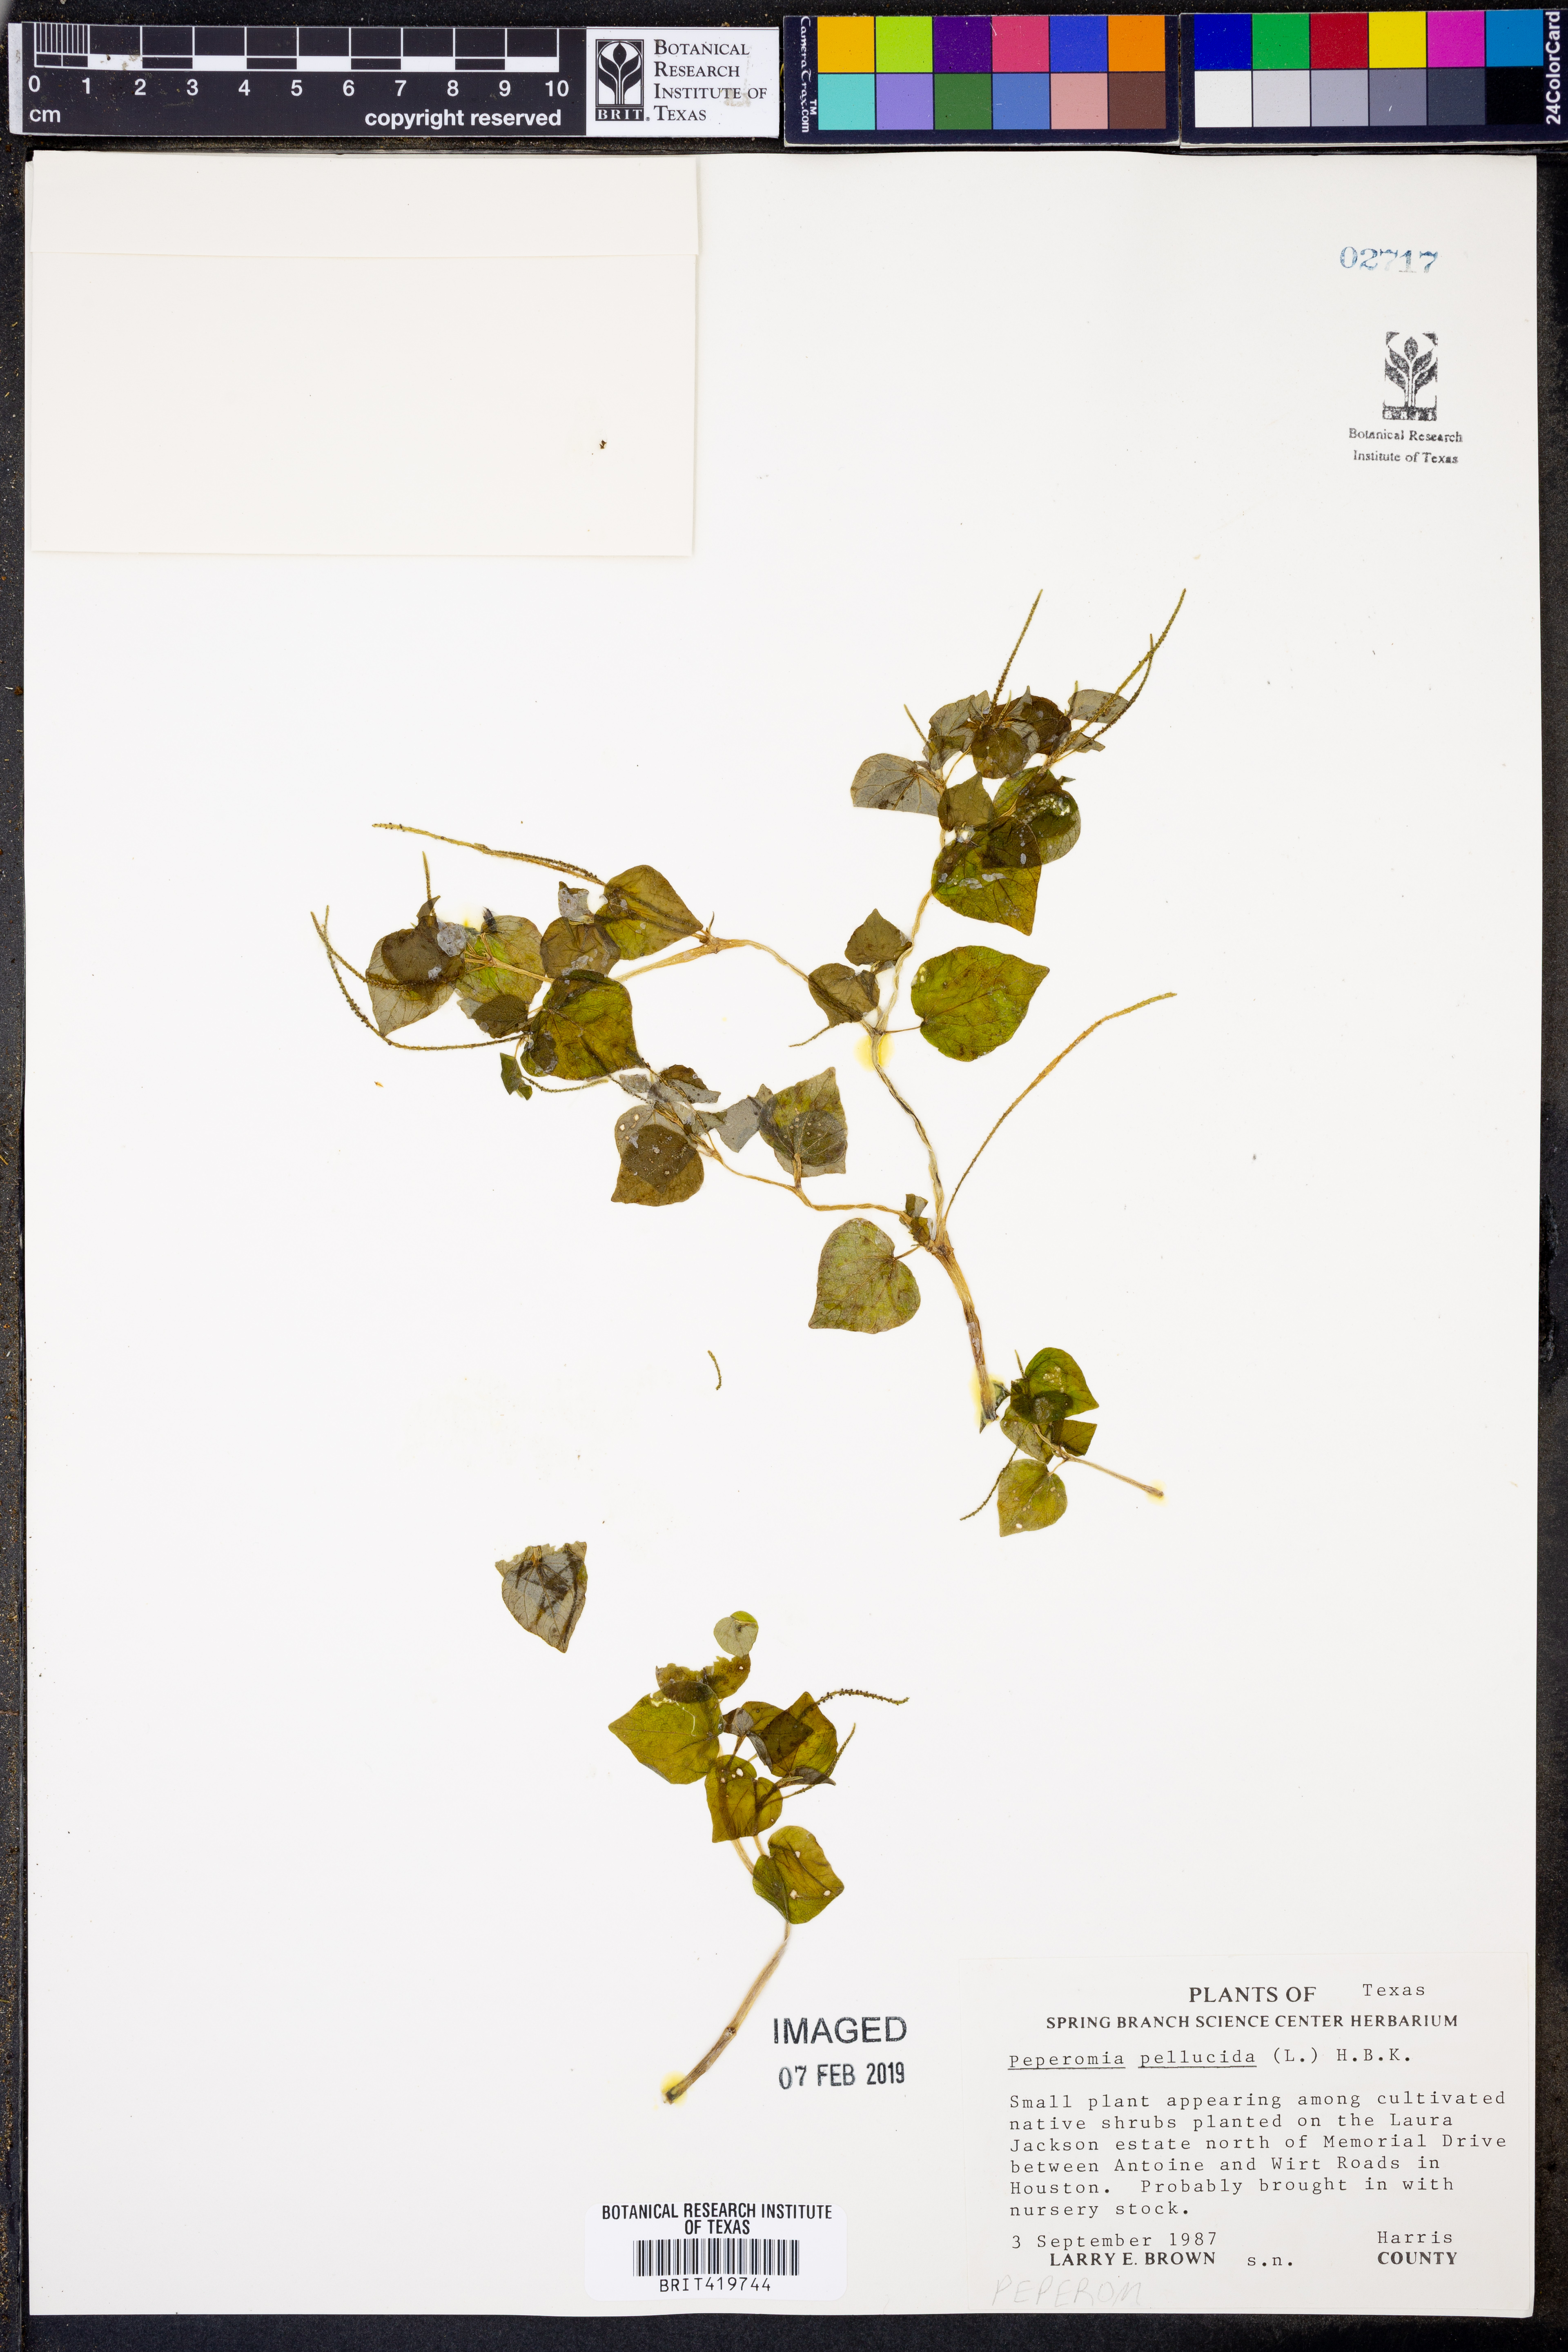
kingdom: Plantae
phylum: Tracheophyta
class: Magnoliopsida
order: Piperales
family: Piperaceae
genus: Peperomia
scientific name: Peperomia pellucida
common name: Man to man
